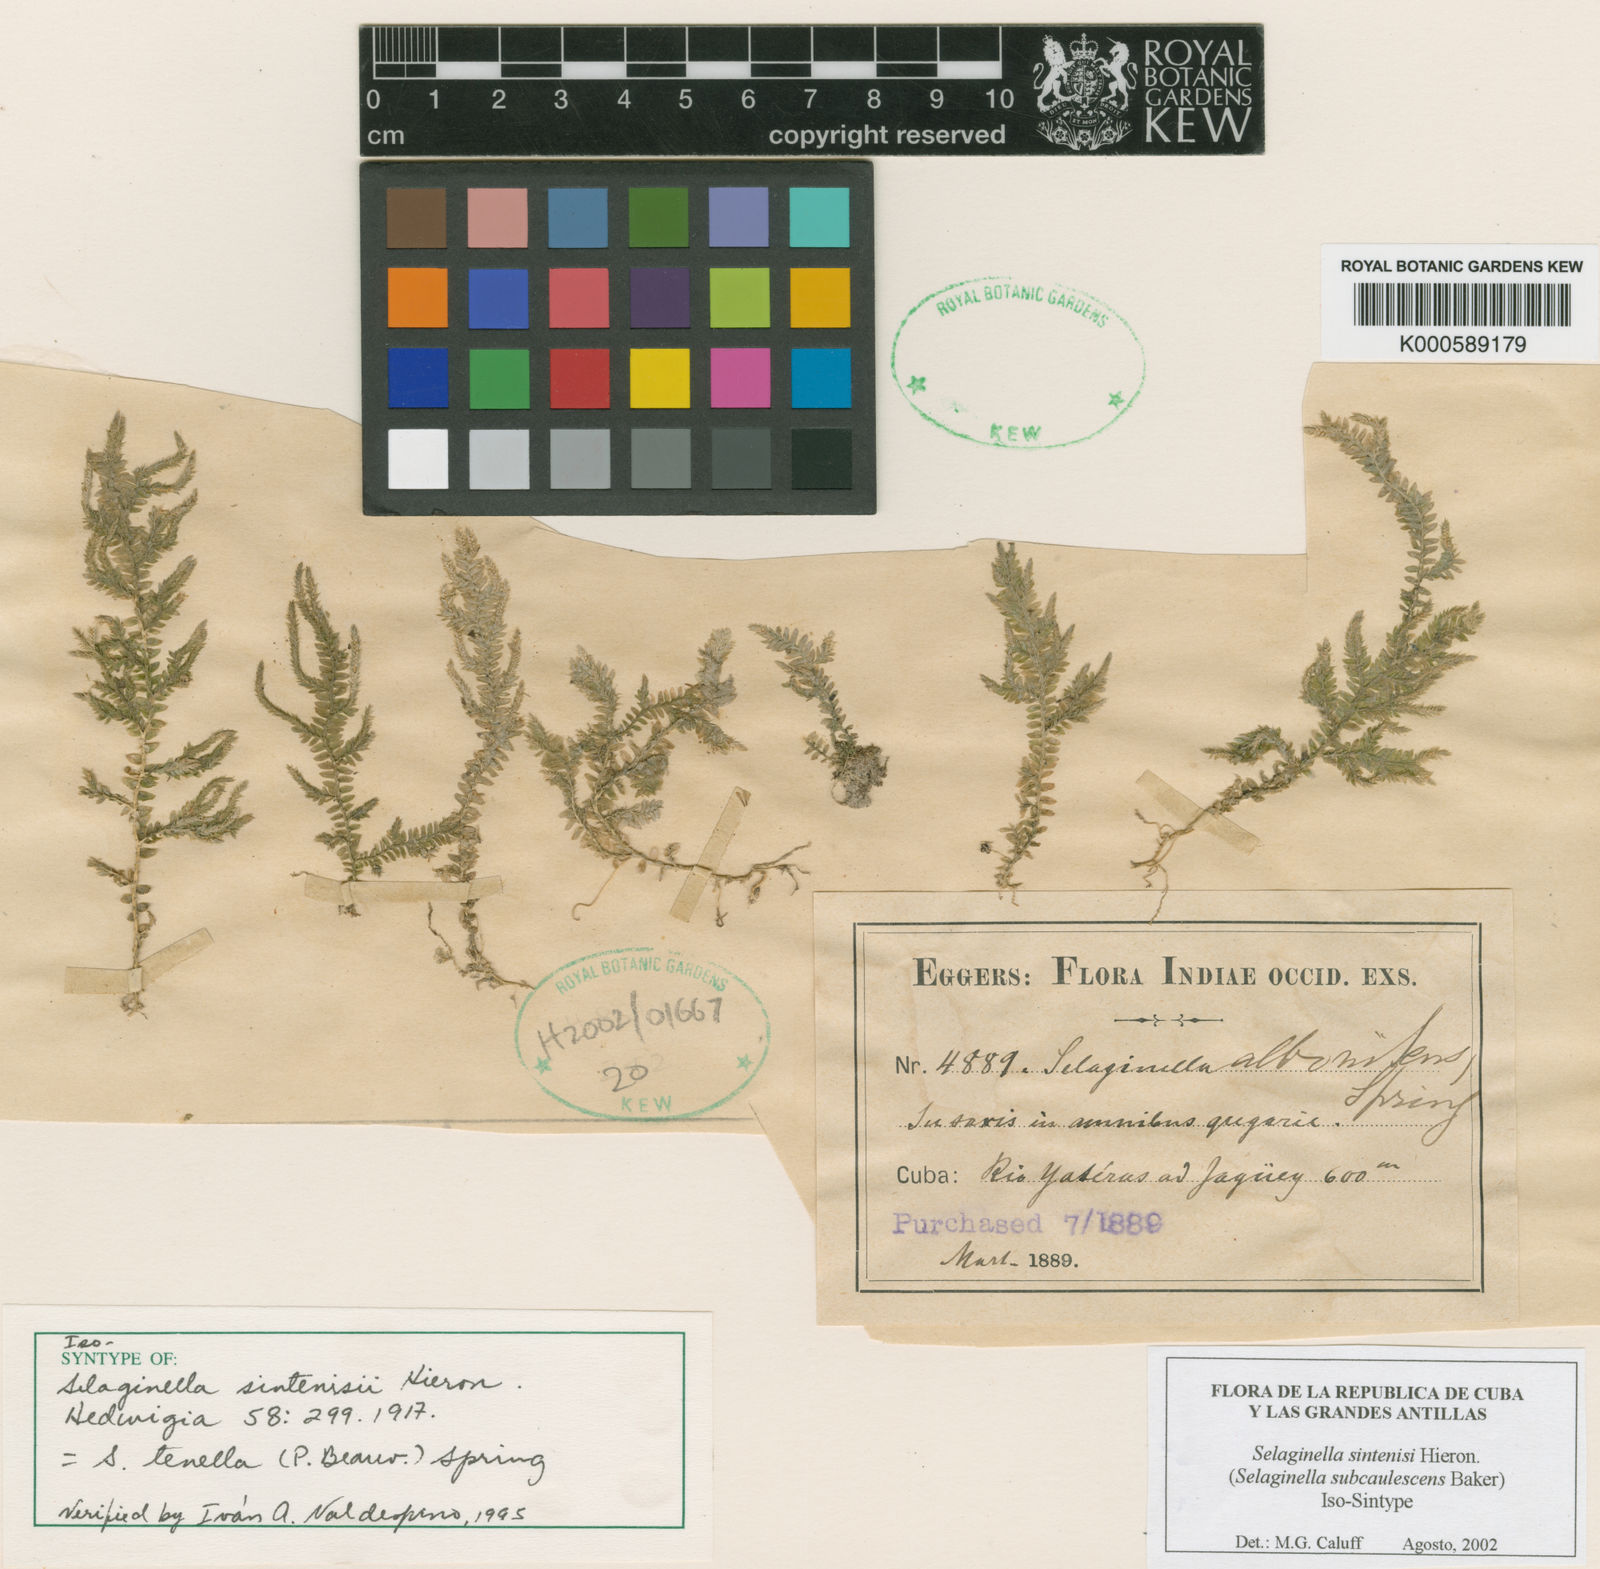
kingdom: Plantae
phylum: Tracheophyta
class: Lycopodiopsida
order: Selaginellales
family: Selaginellaceae
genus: Selaginella
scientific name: Selaginella tenella
